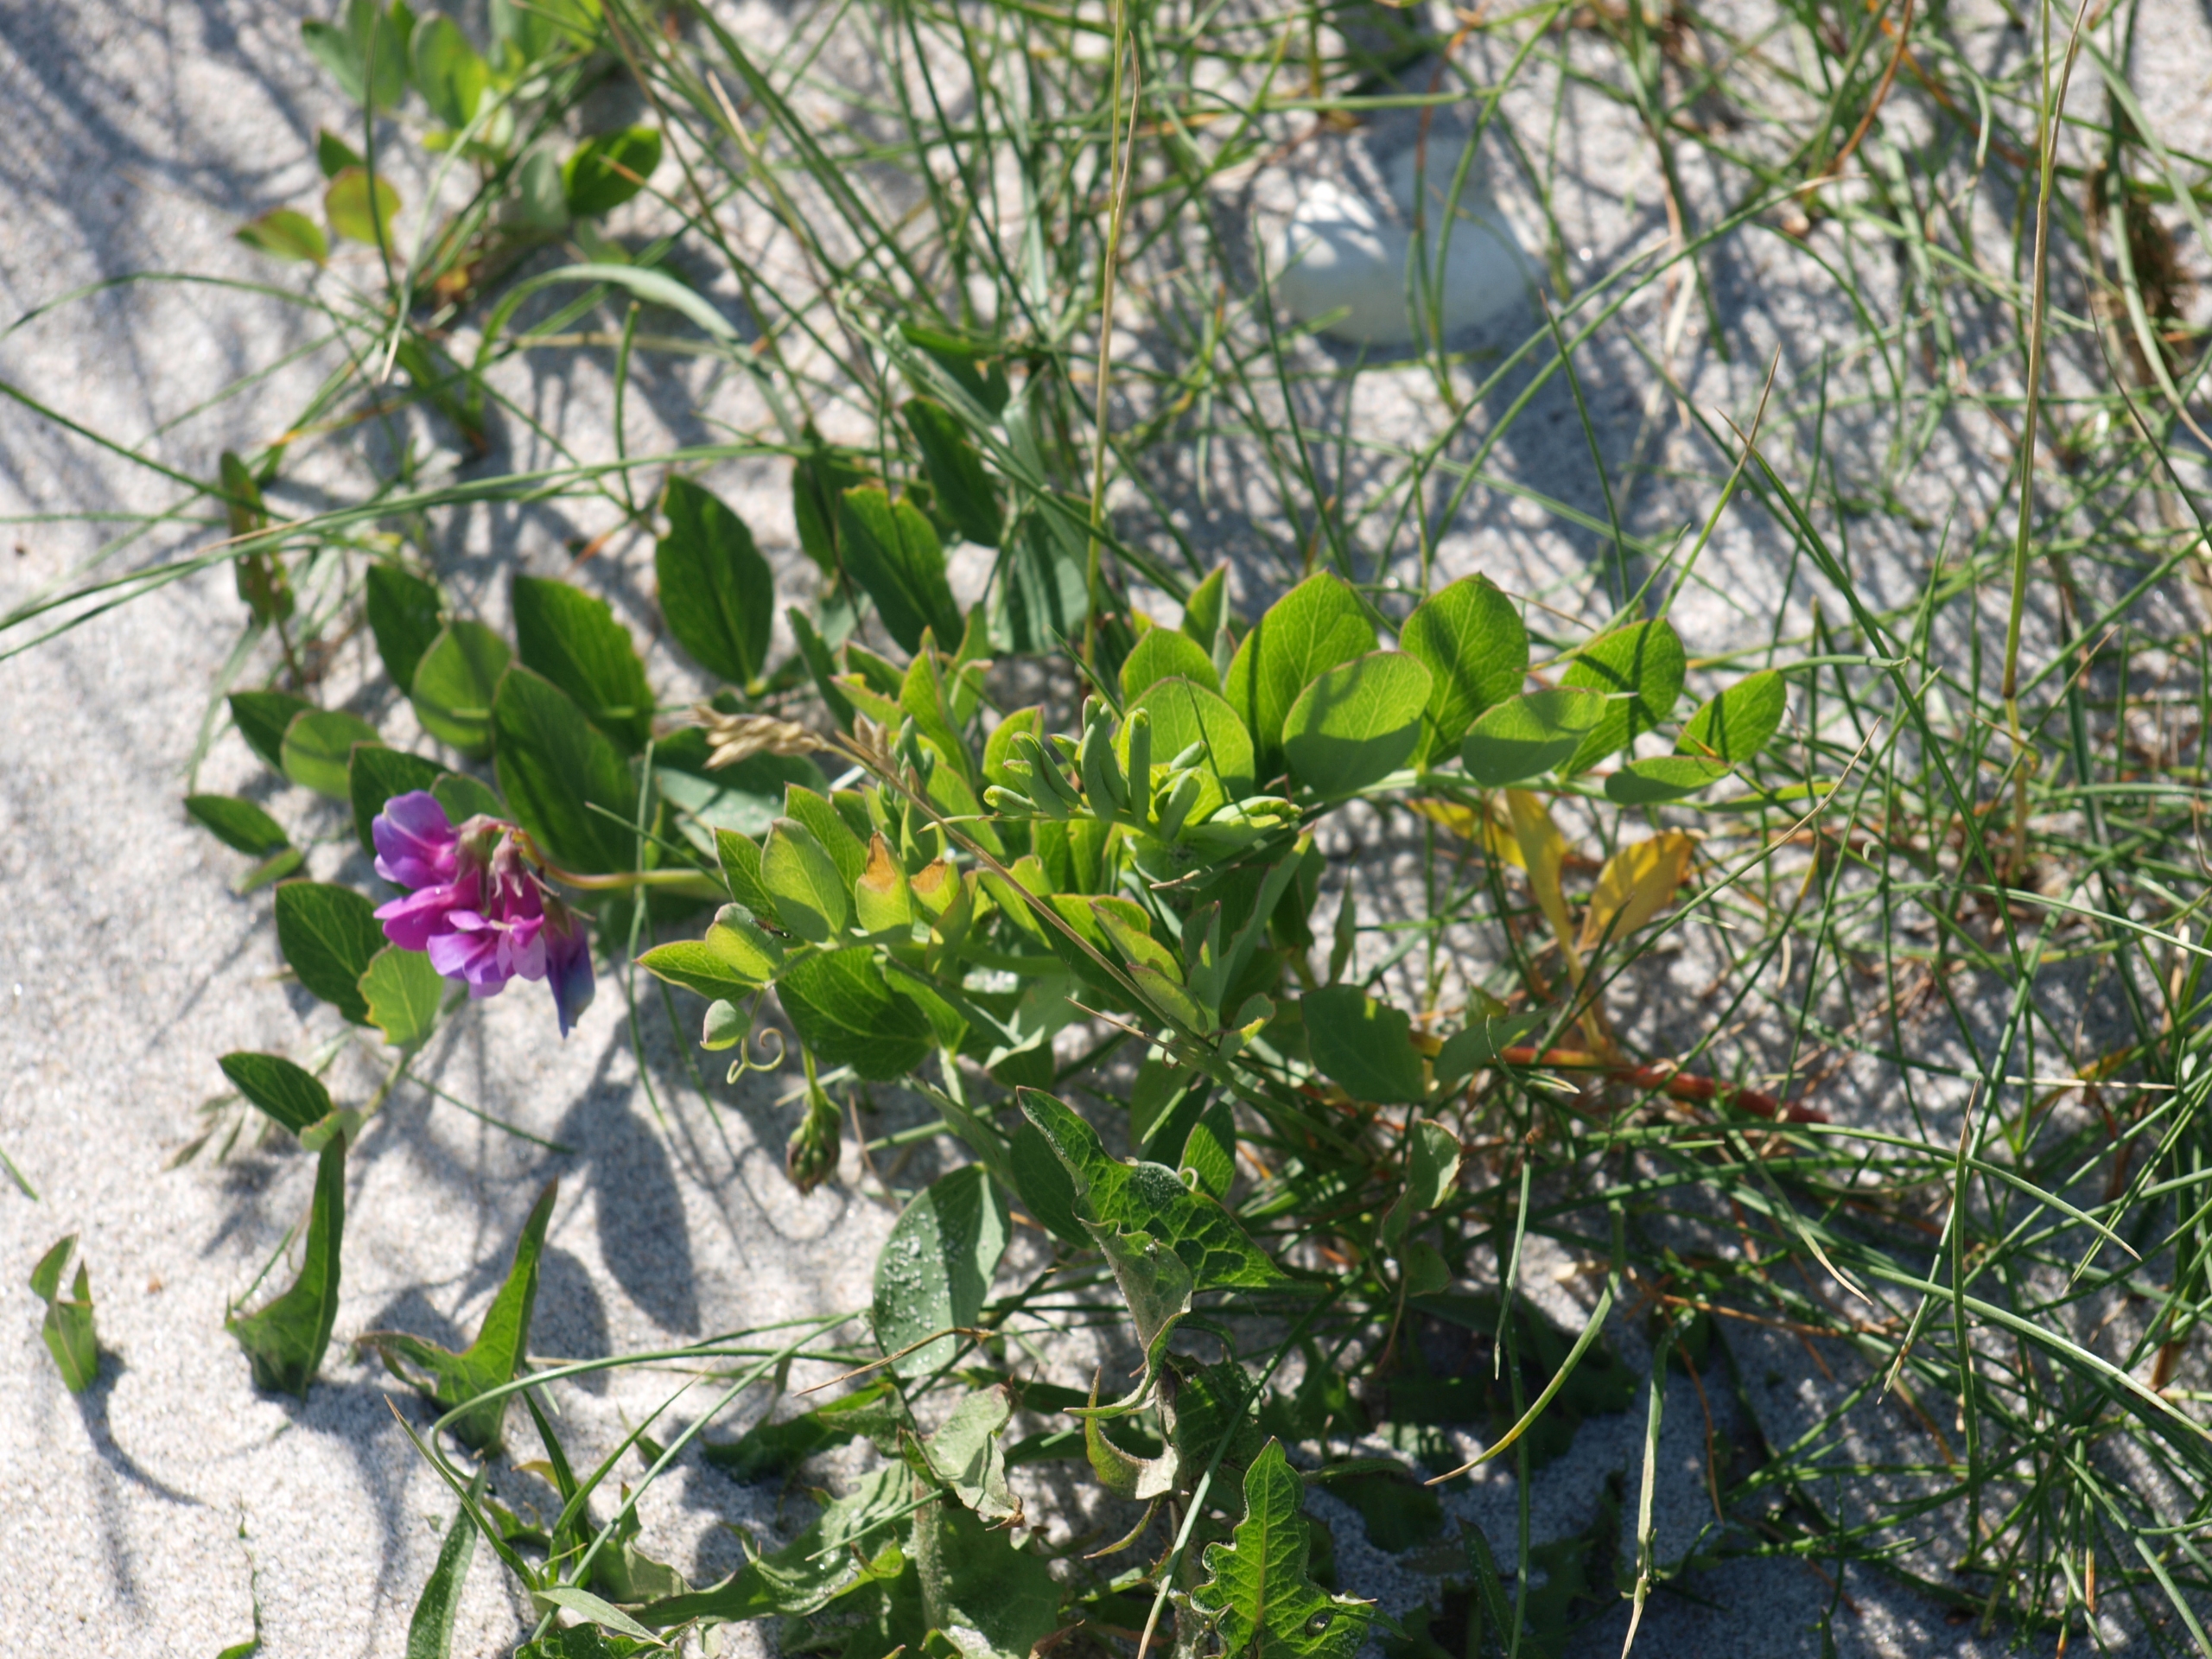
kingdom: Plantae
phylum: Tracheophyta
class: Magnoliopsida
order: Fabales
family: Fabaceae
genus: Lathyrus
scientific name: Lathyrus japonicus
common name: Klit-fladbælg
